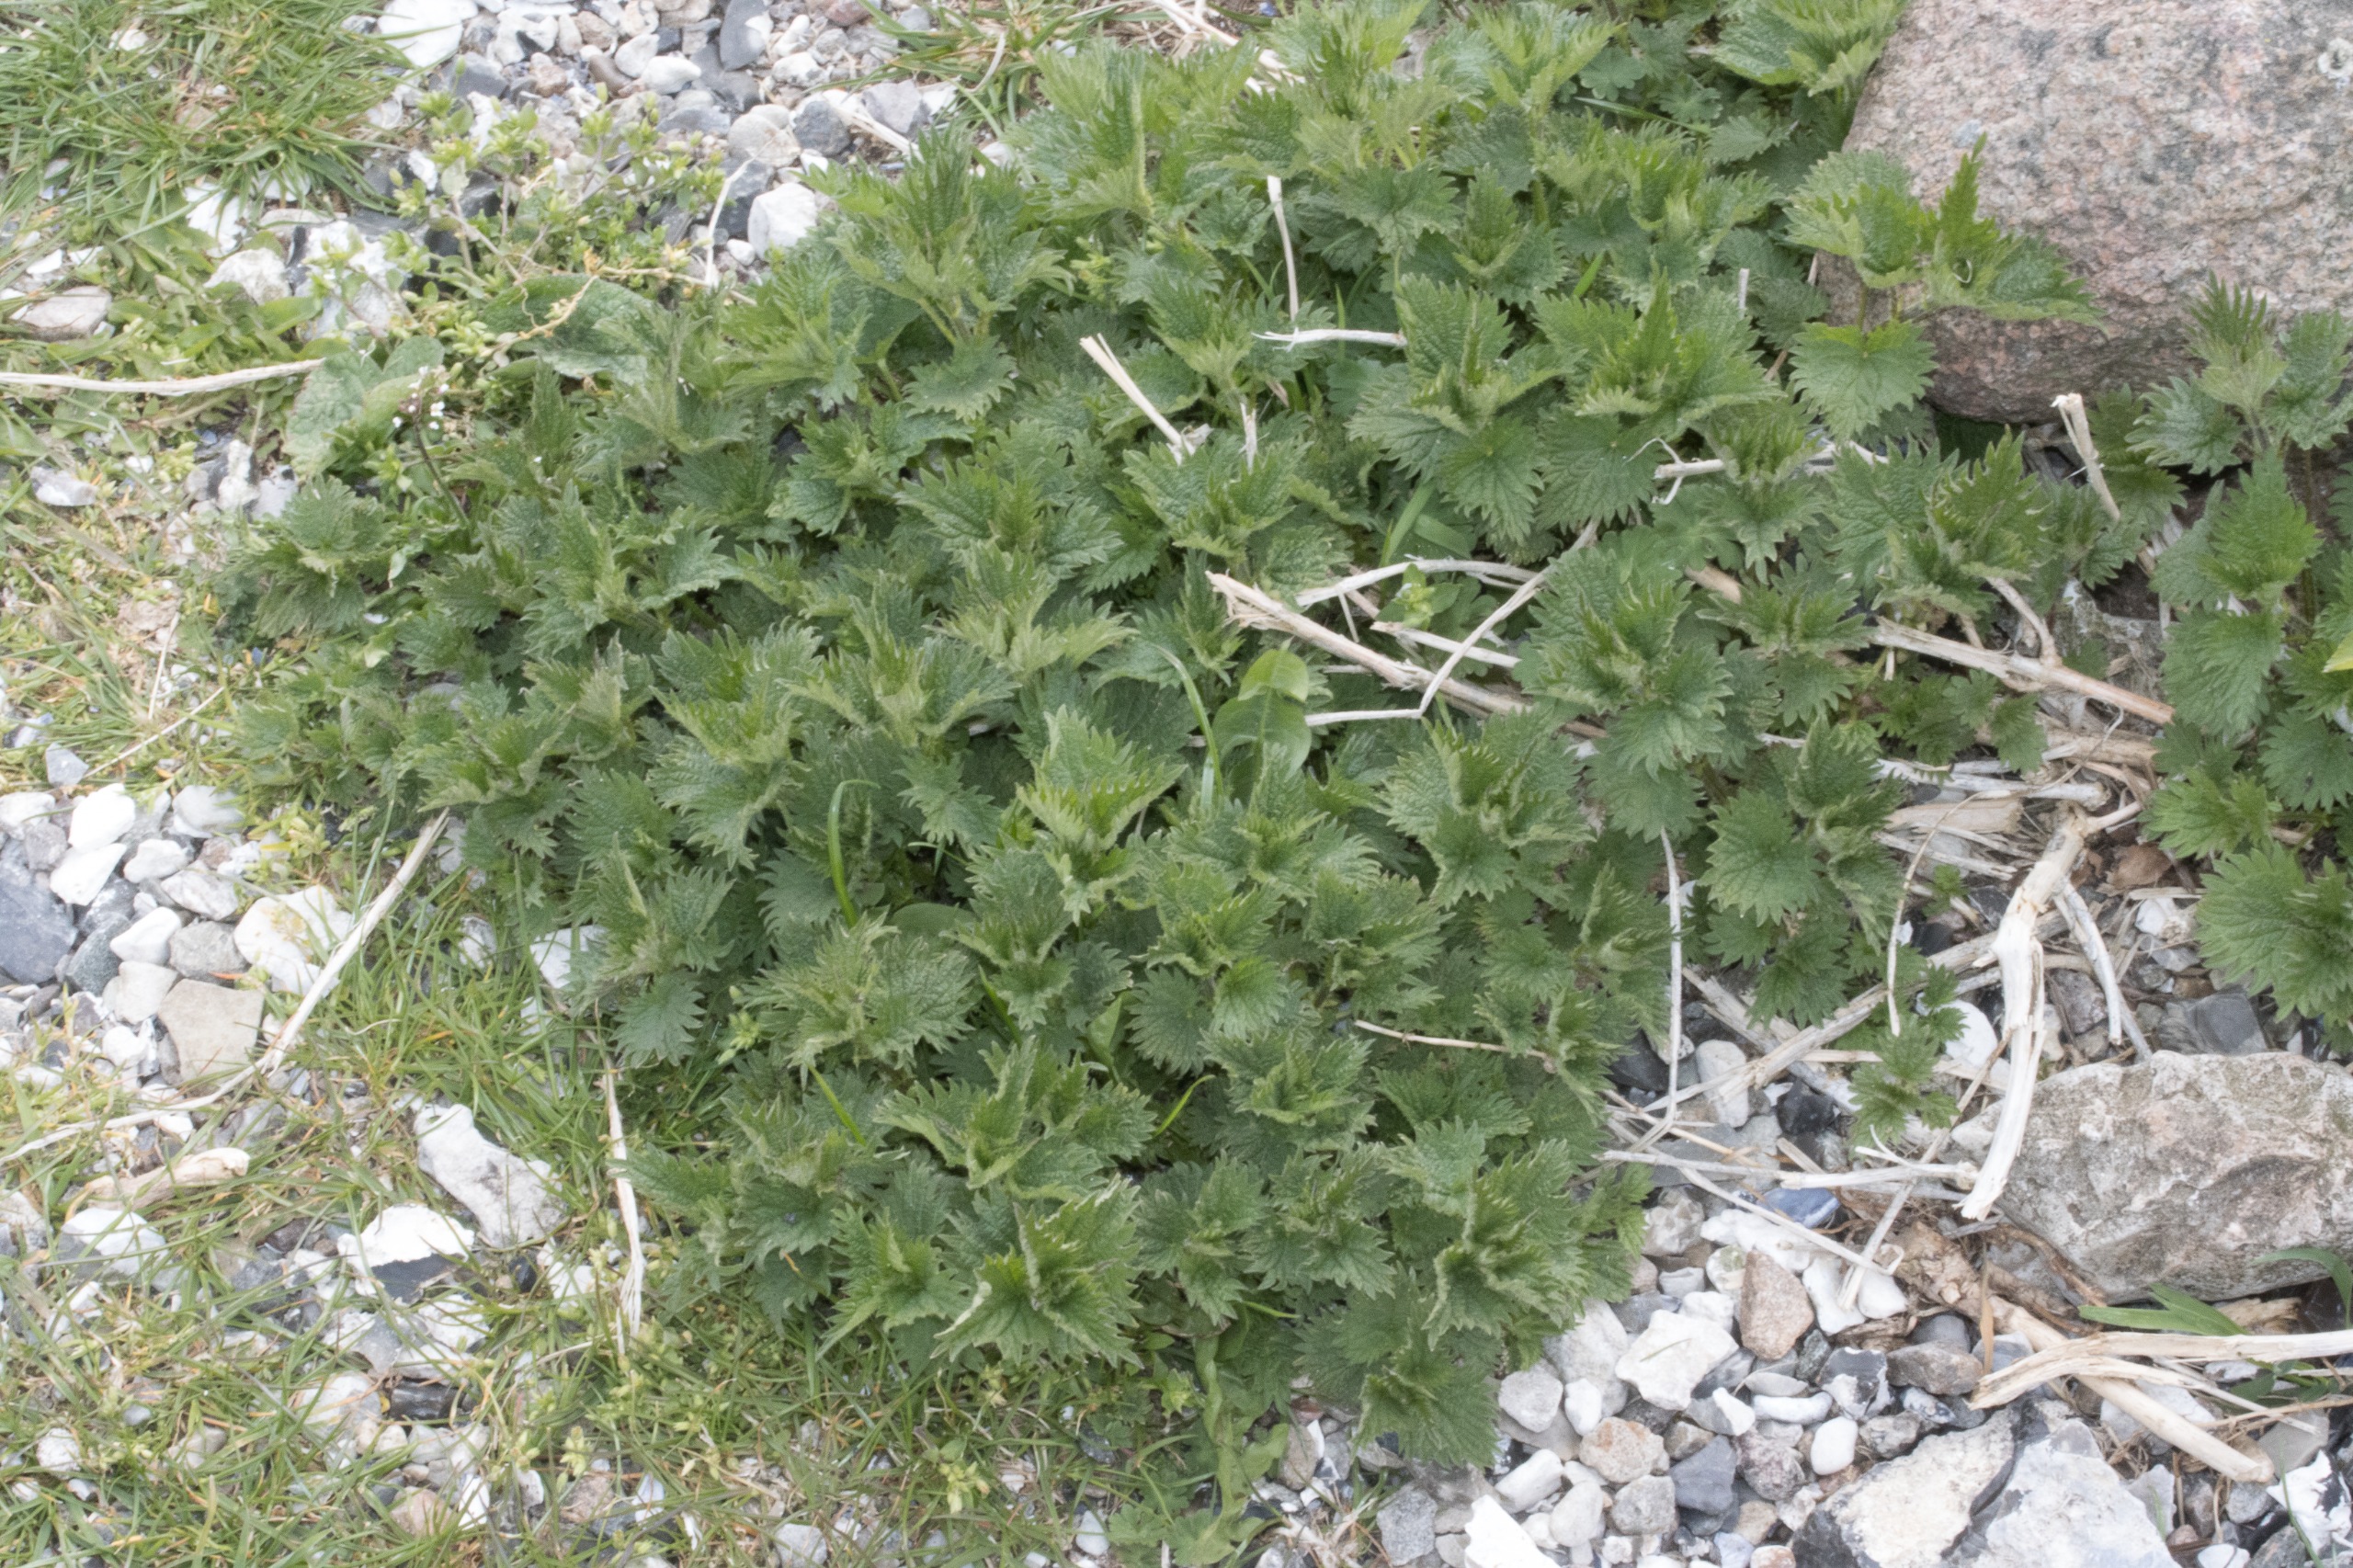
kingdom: Plantae
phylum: Tracheophyta
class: Magnoliopsida
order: Rosales
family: Urticaceae
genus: Urtica
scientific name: Urtica dioica
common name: Stor nælde
